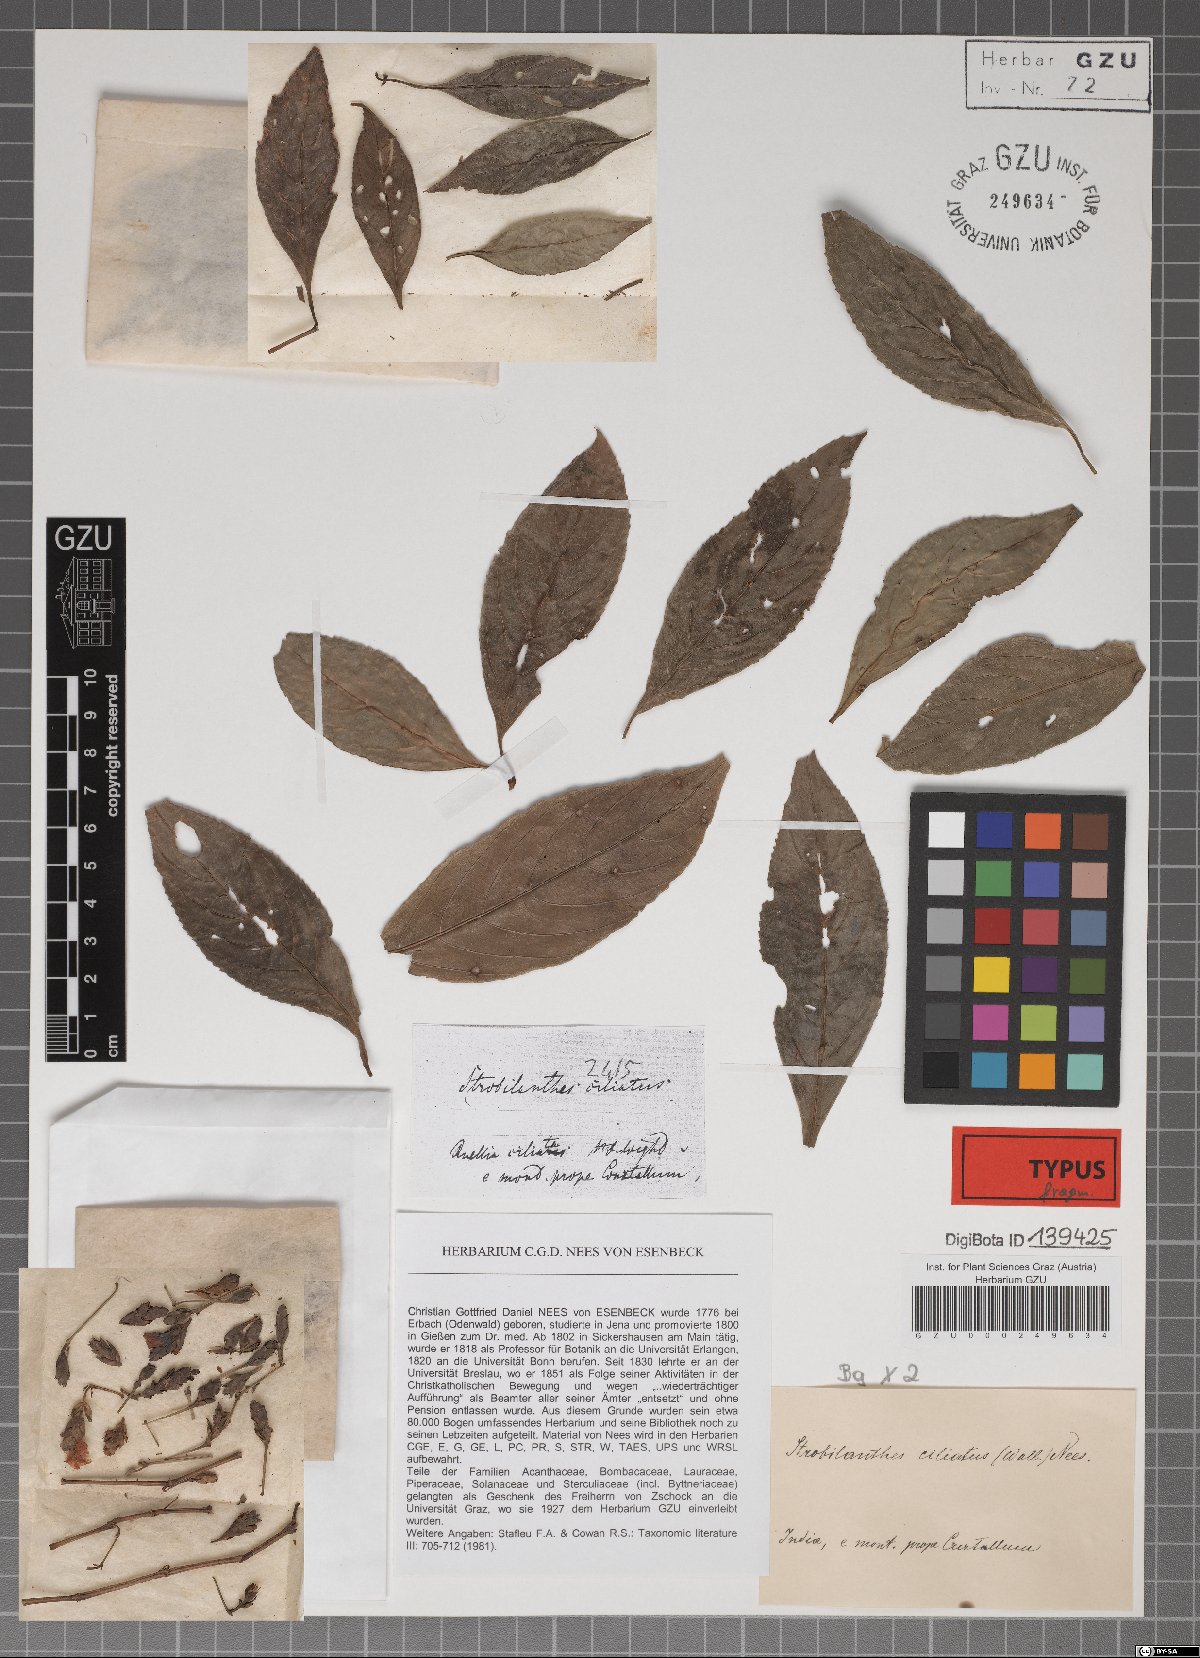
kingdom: Plantae
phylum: Tracheophyta
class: Magnoliopsida
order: Lamiales
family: Acanthaceae
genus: Strobilanthes
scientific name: Strobilanthes ciliata
